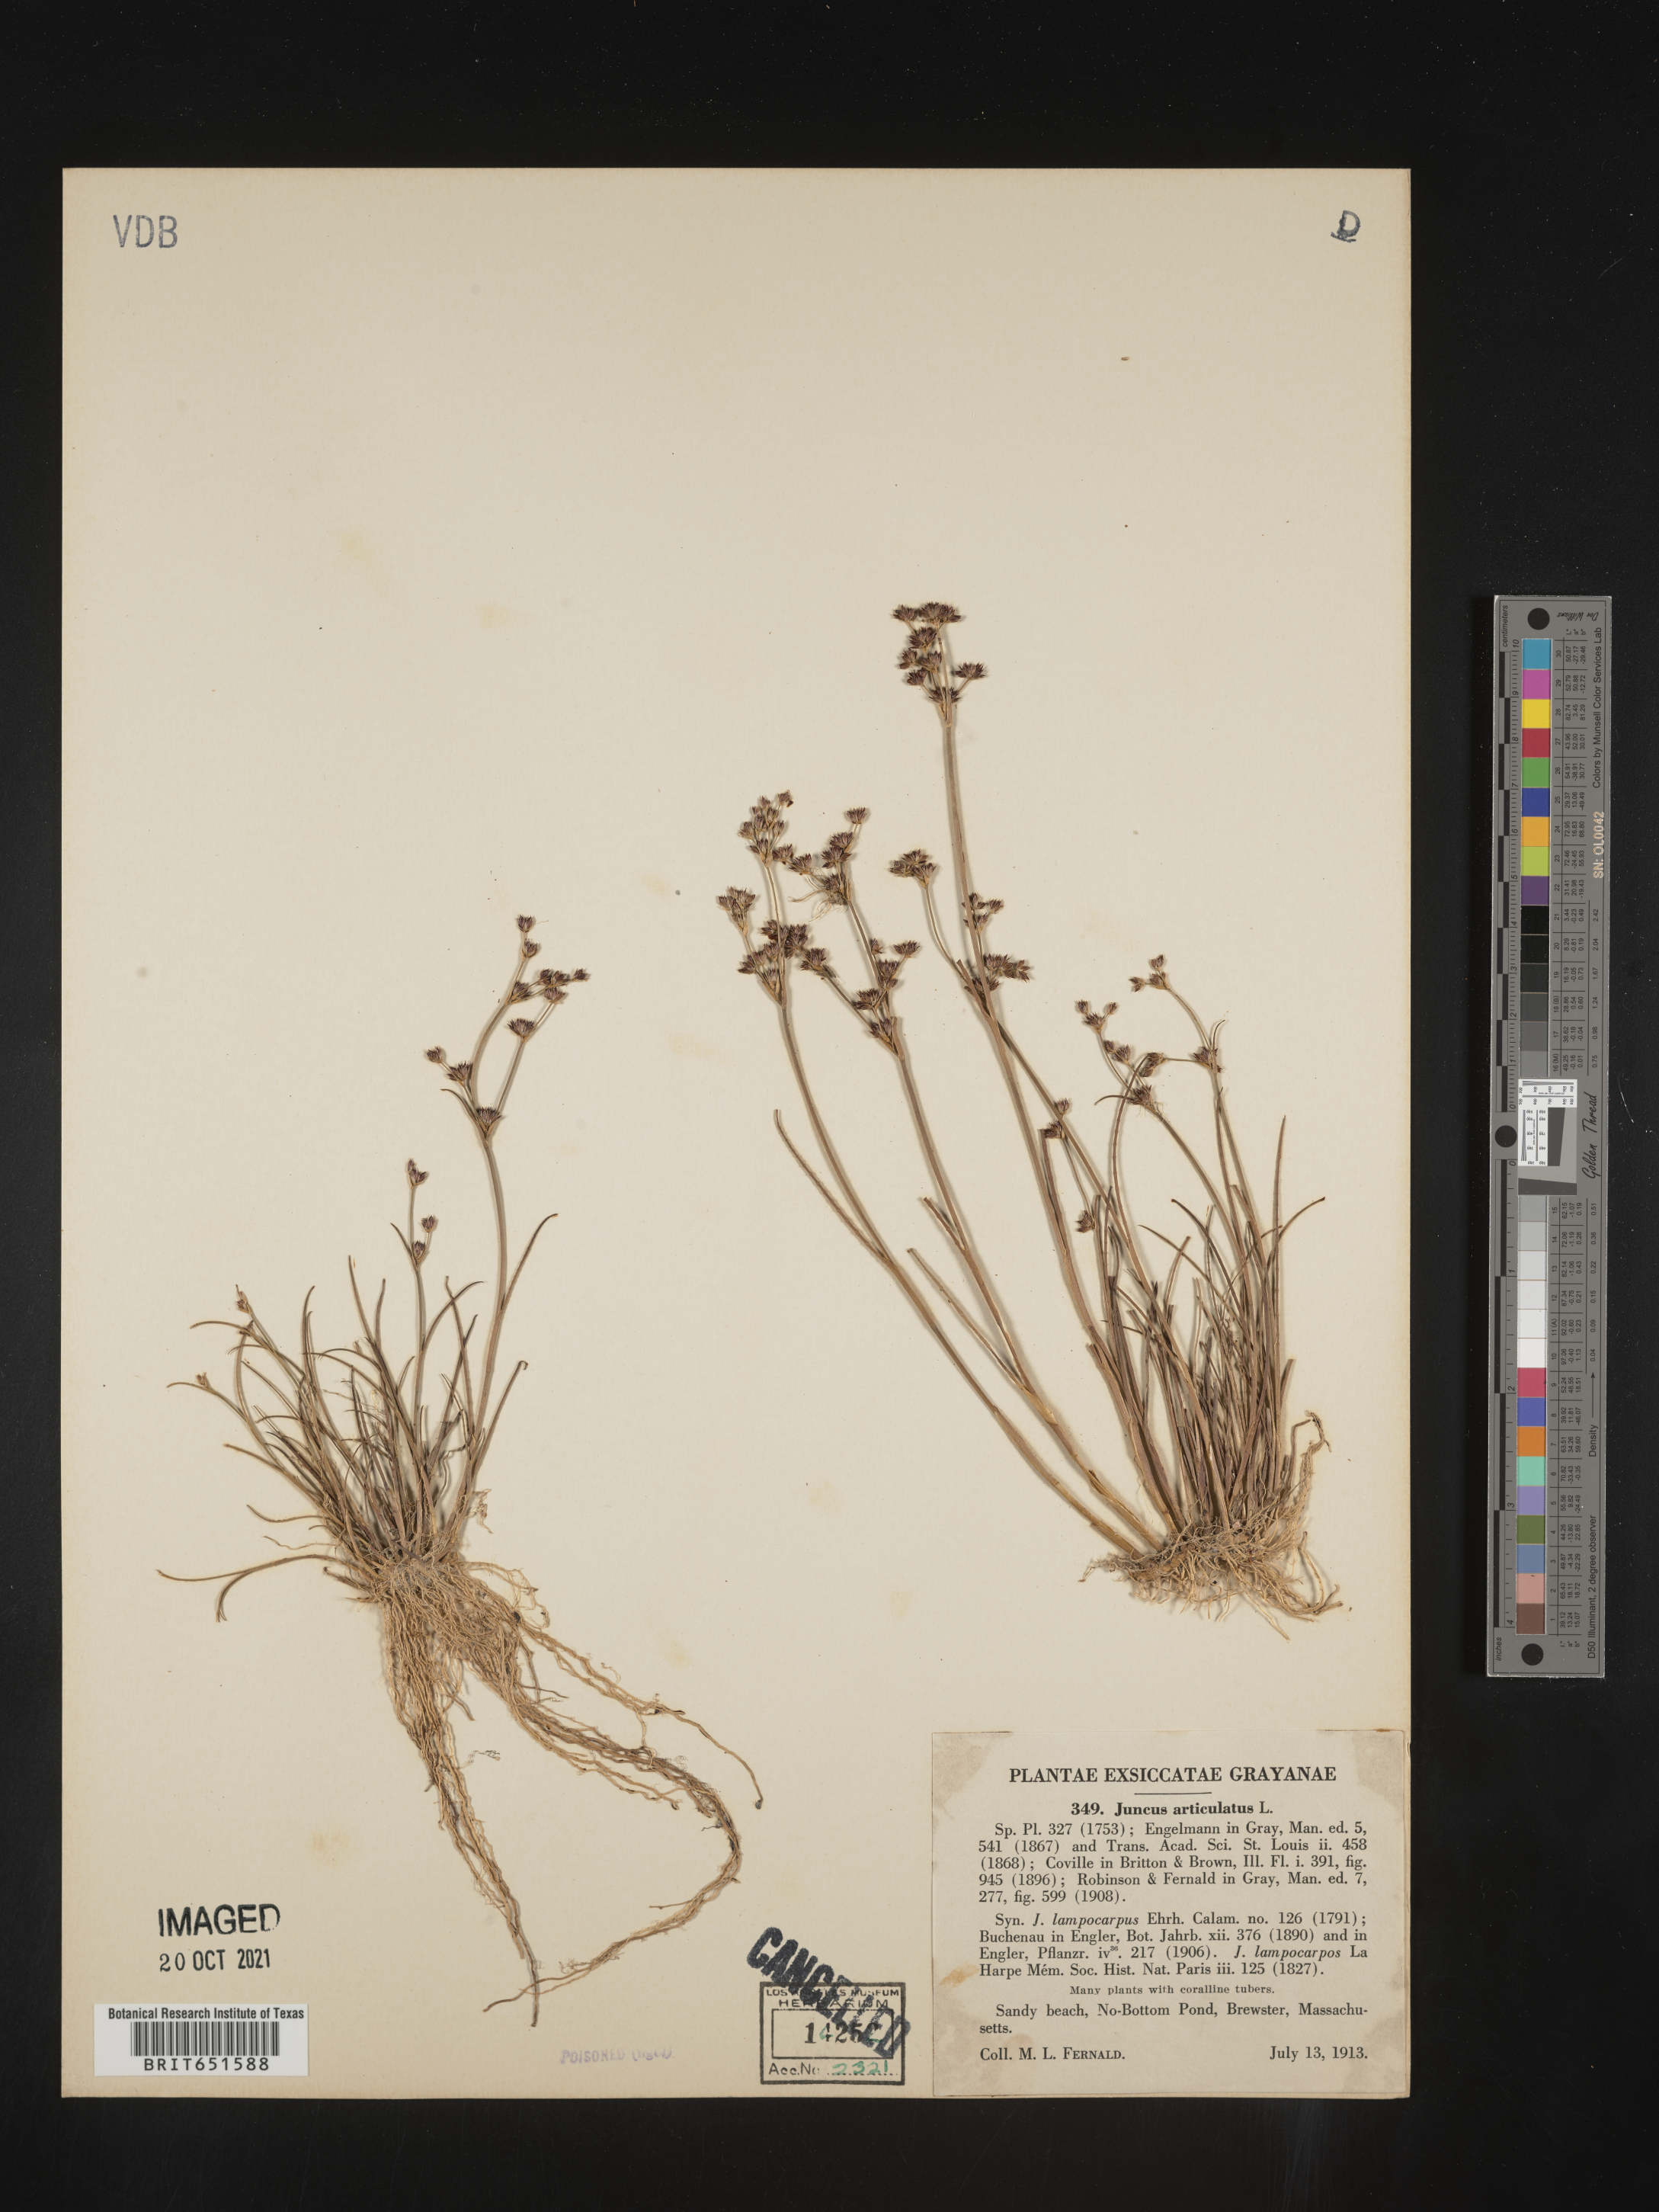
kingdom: Plantae
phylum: Tracheophyta
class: Liliopsida
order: Poales
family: Juncaceae
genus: Juncus
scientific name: Juncus articulatus
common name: Jointed rush
